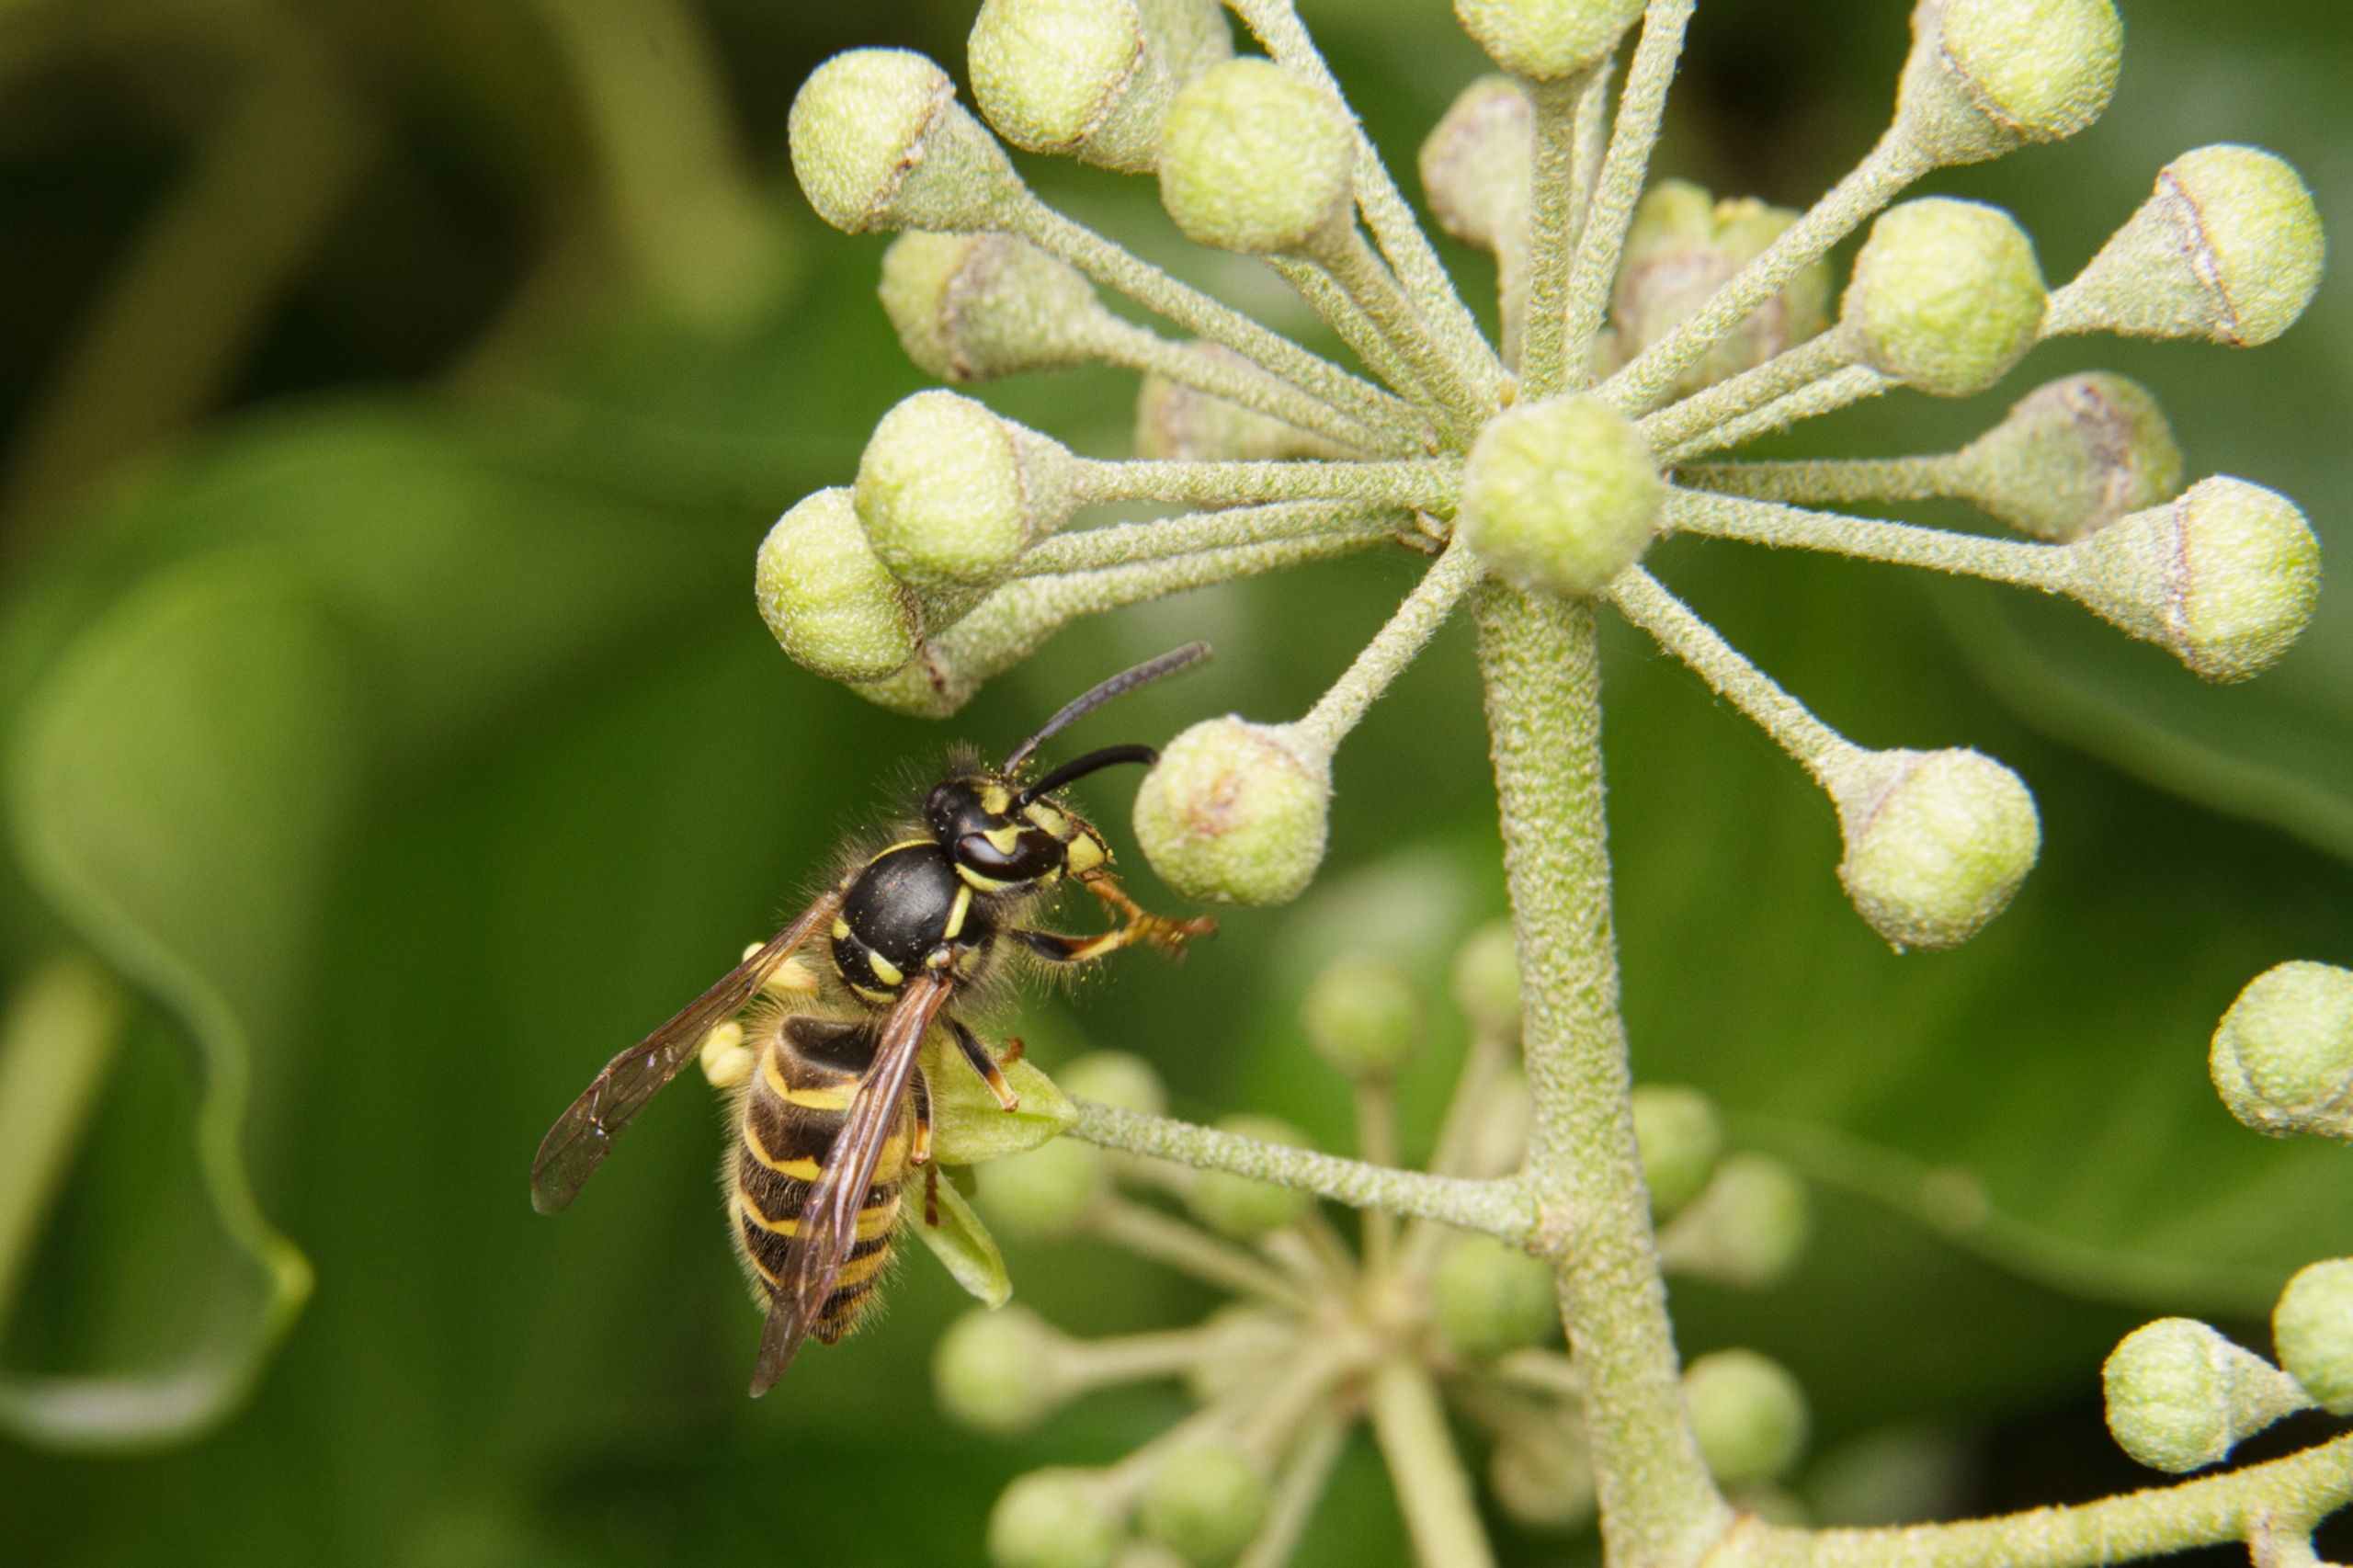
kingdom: Animalia
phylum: Arthropoda
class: Insecta
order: Hymenoptera
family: Vespidae
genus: Vespula
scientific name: Vespula vulgaris
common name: Almindelig gedehams
